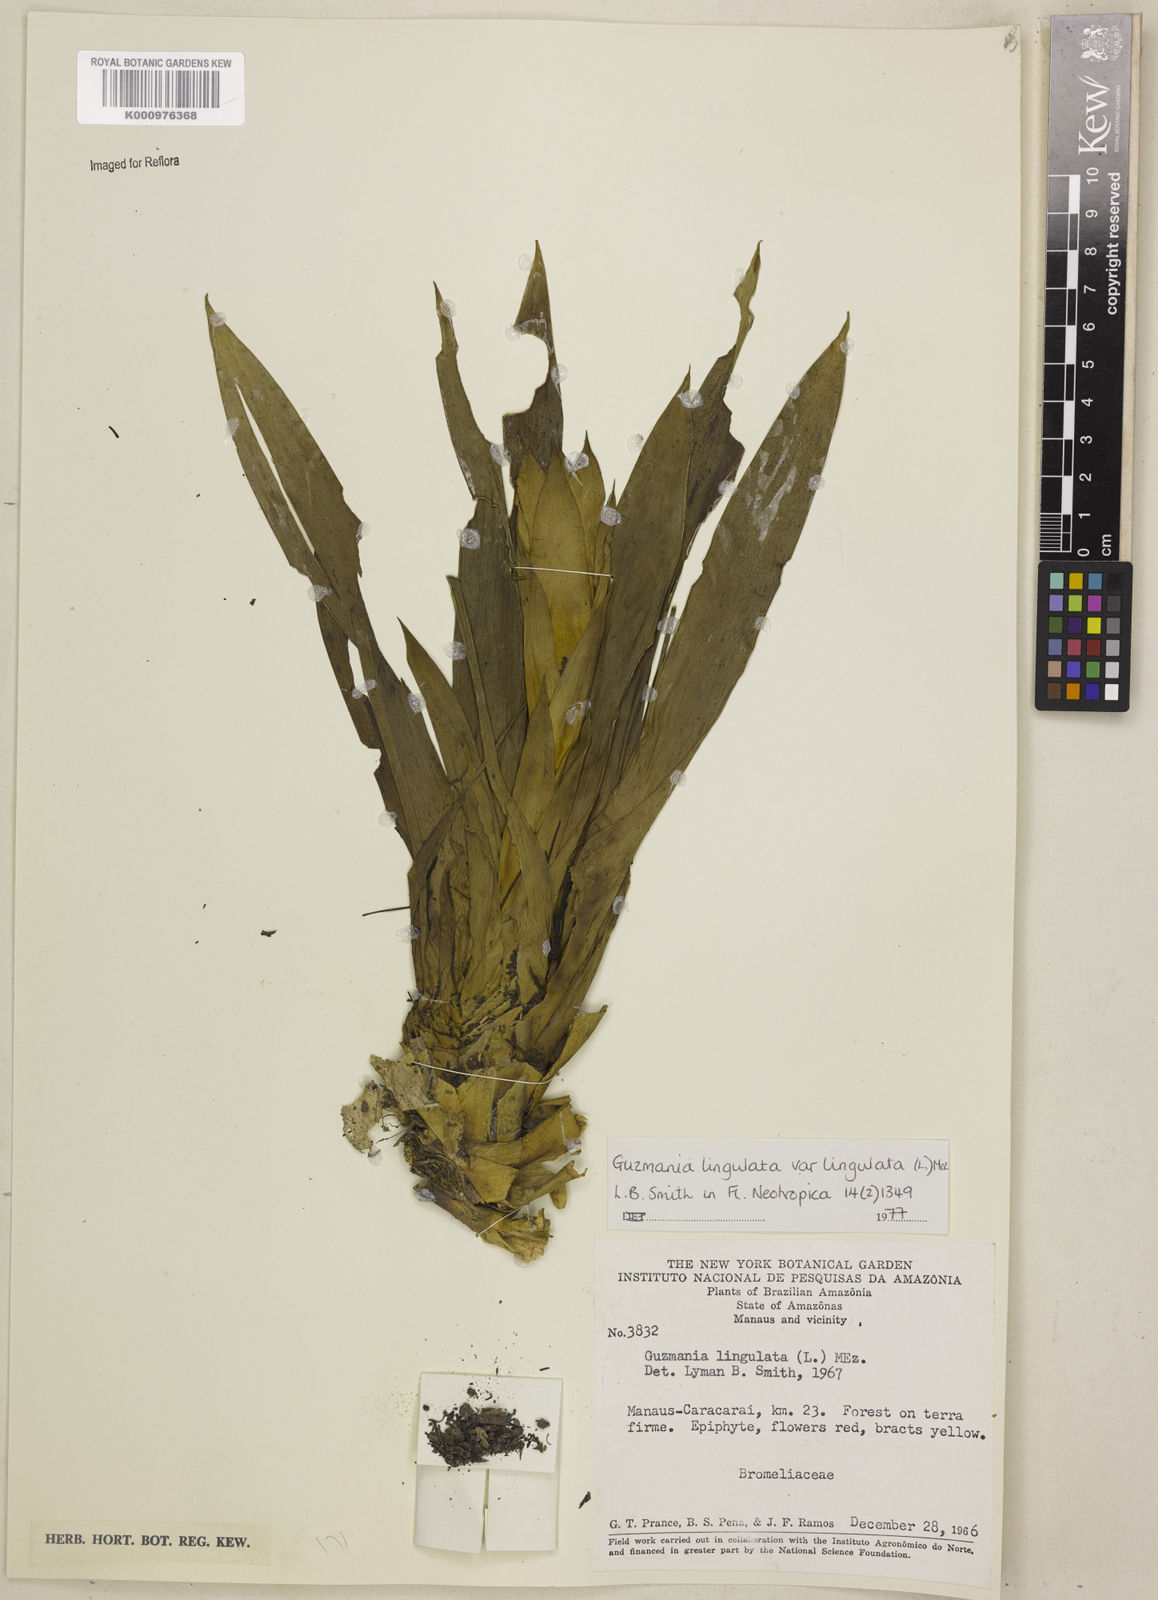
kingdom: Plantae
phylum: Tracheophyta
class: Liliopsida
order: Poales
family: Bromeliaceae
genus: Guzmania
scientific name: Guzmania lingulata
